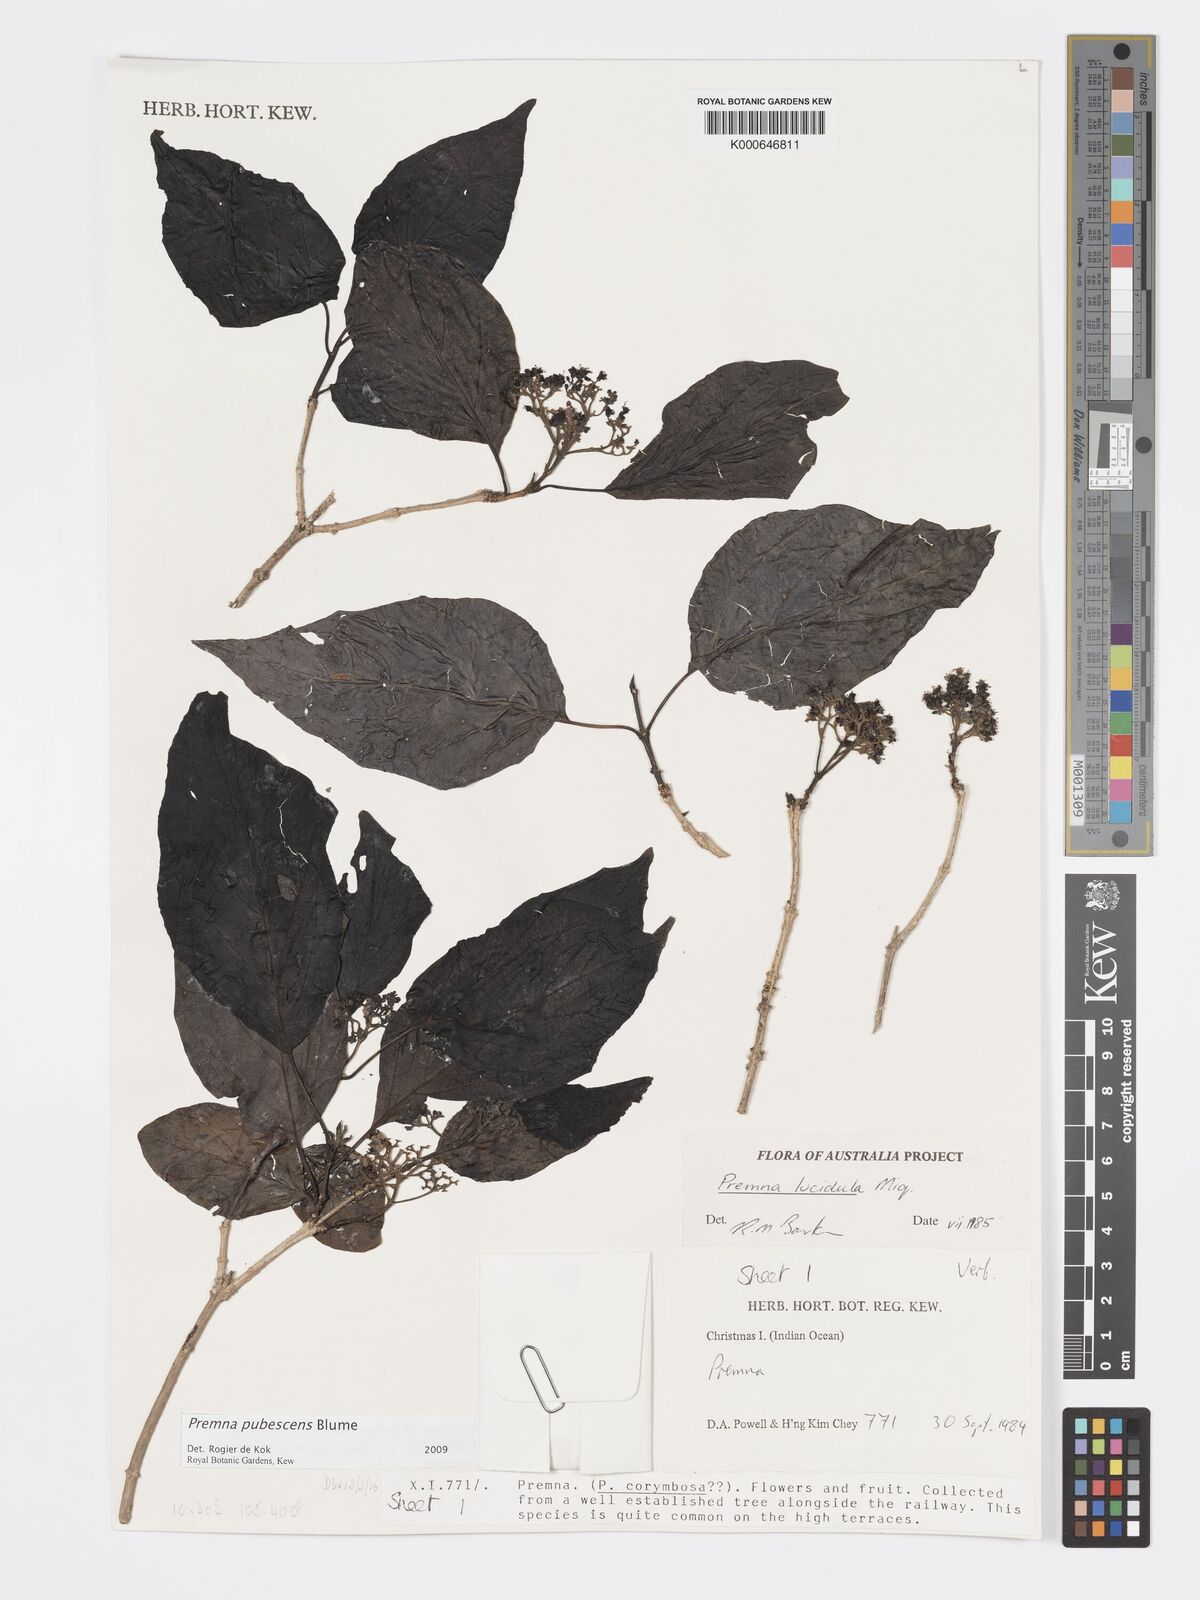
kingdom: Plantae
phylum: Tracheophyta
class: Magnoliopsida
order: Lamiales
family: Lamiaceae
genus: Premna
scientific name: Premna
